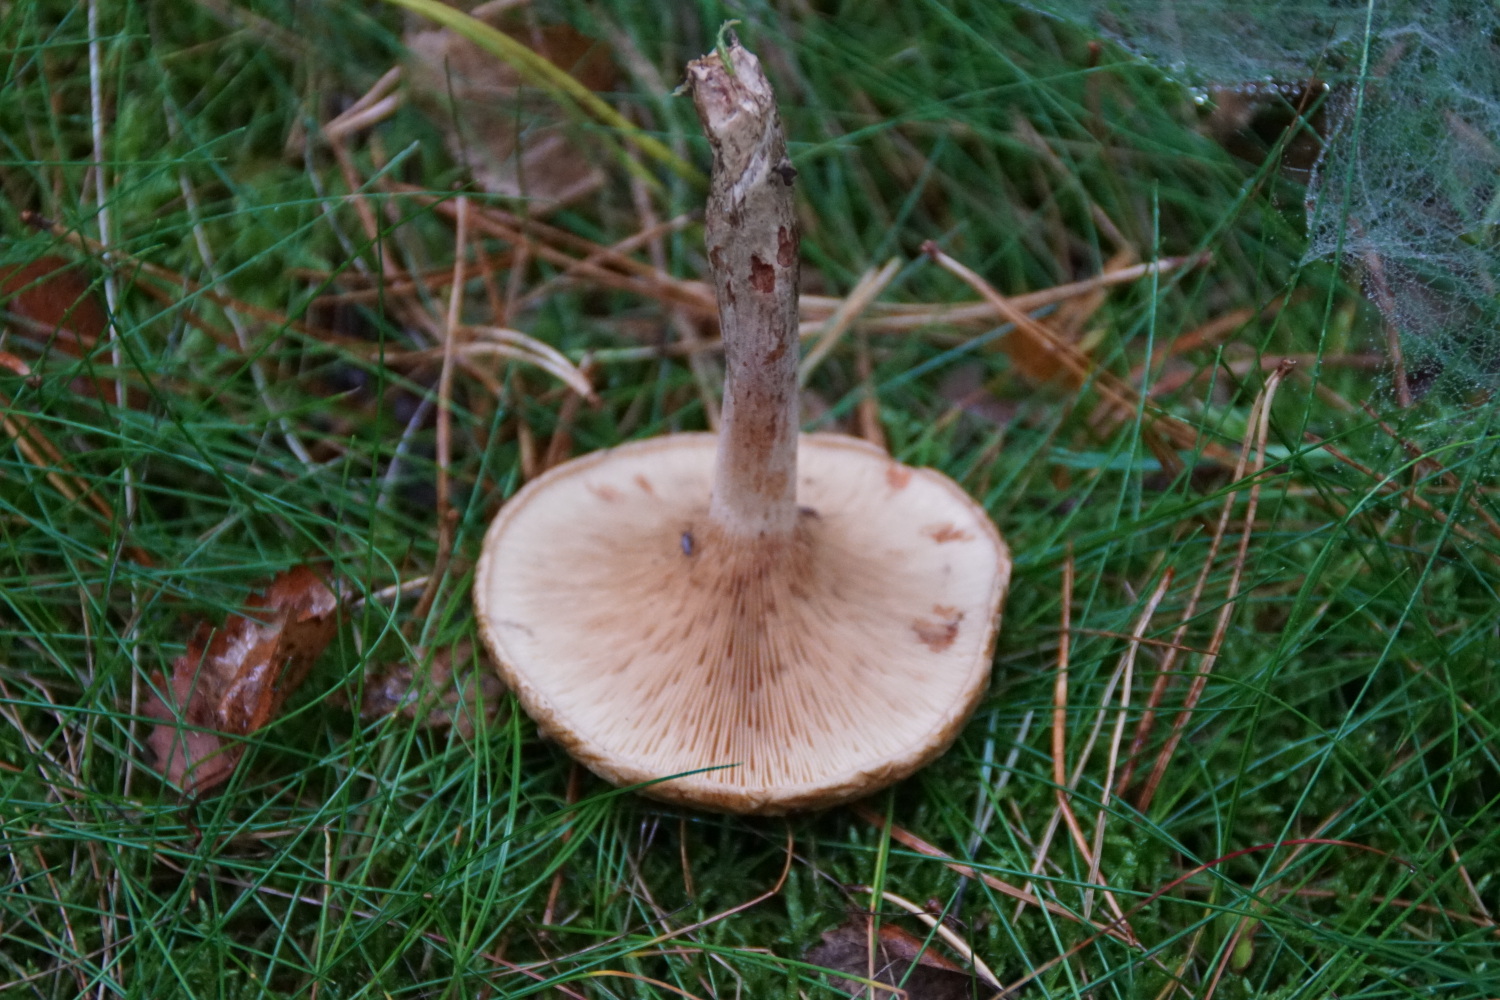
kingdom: Fungi
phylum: Basidiomycota
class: Agaricomycetes
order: Boletales
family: Paxillaceae
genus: Paxillus
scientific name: Paxillus involutus
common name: almindelig netbladhat
